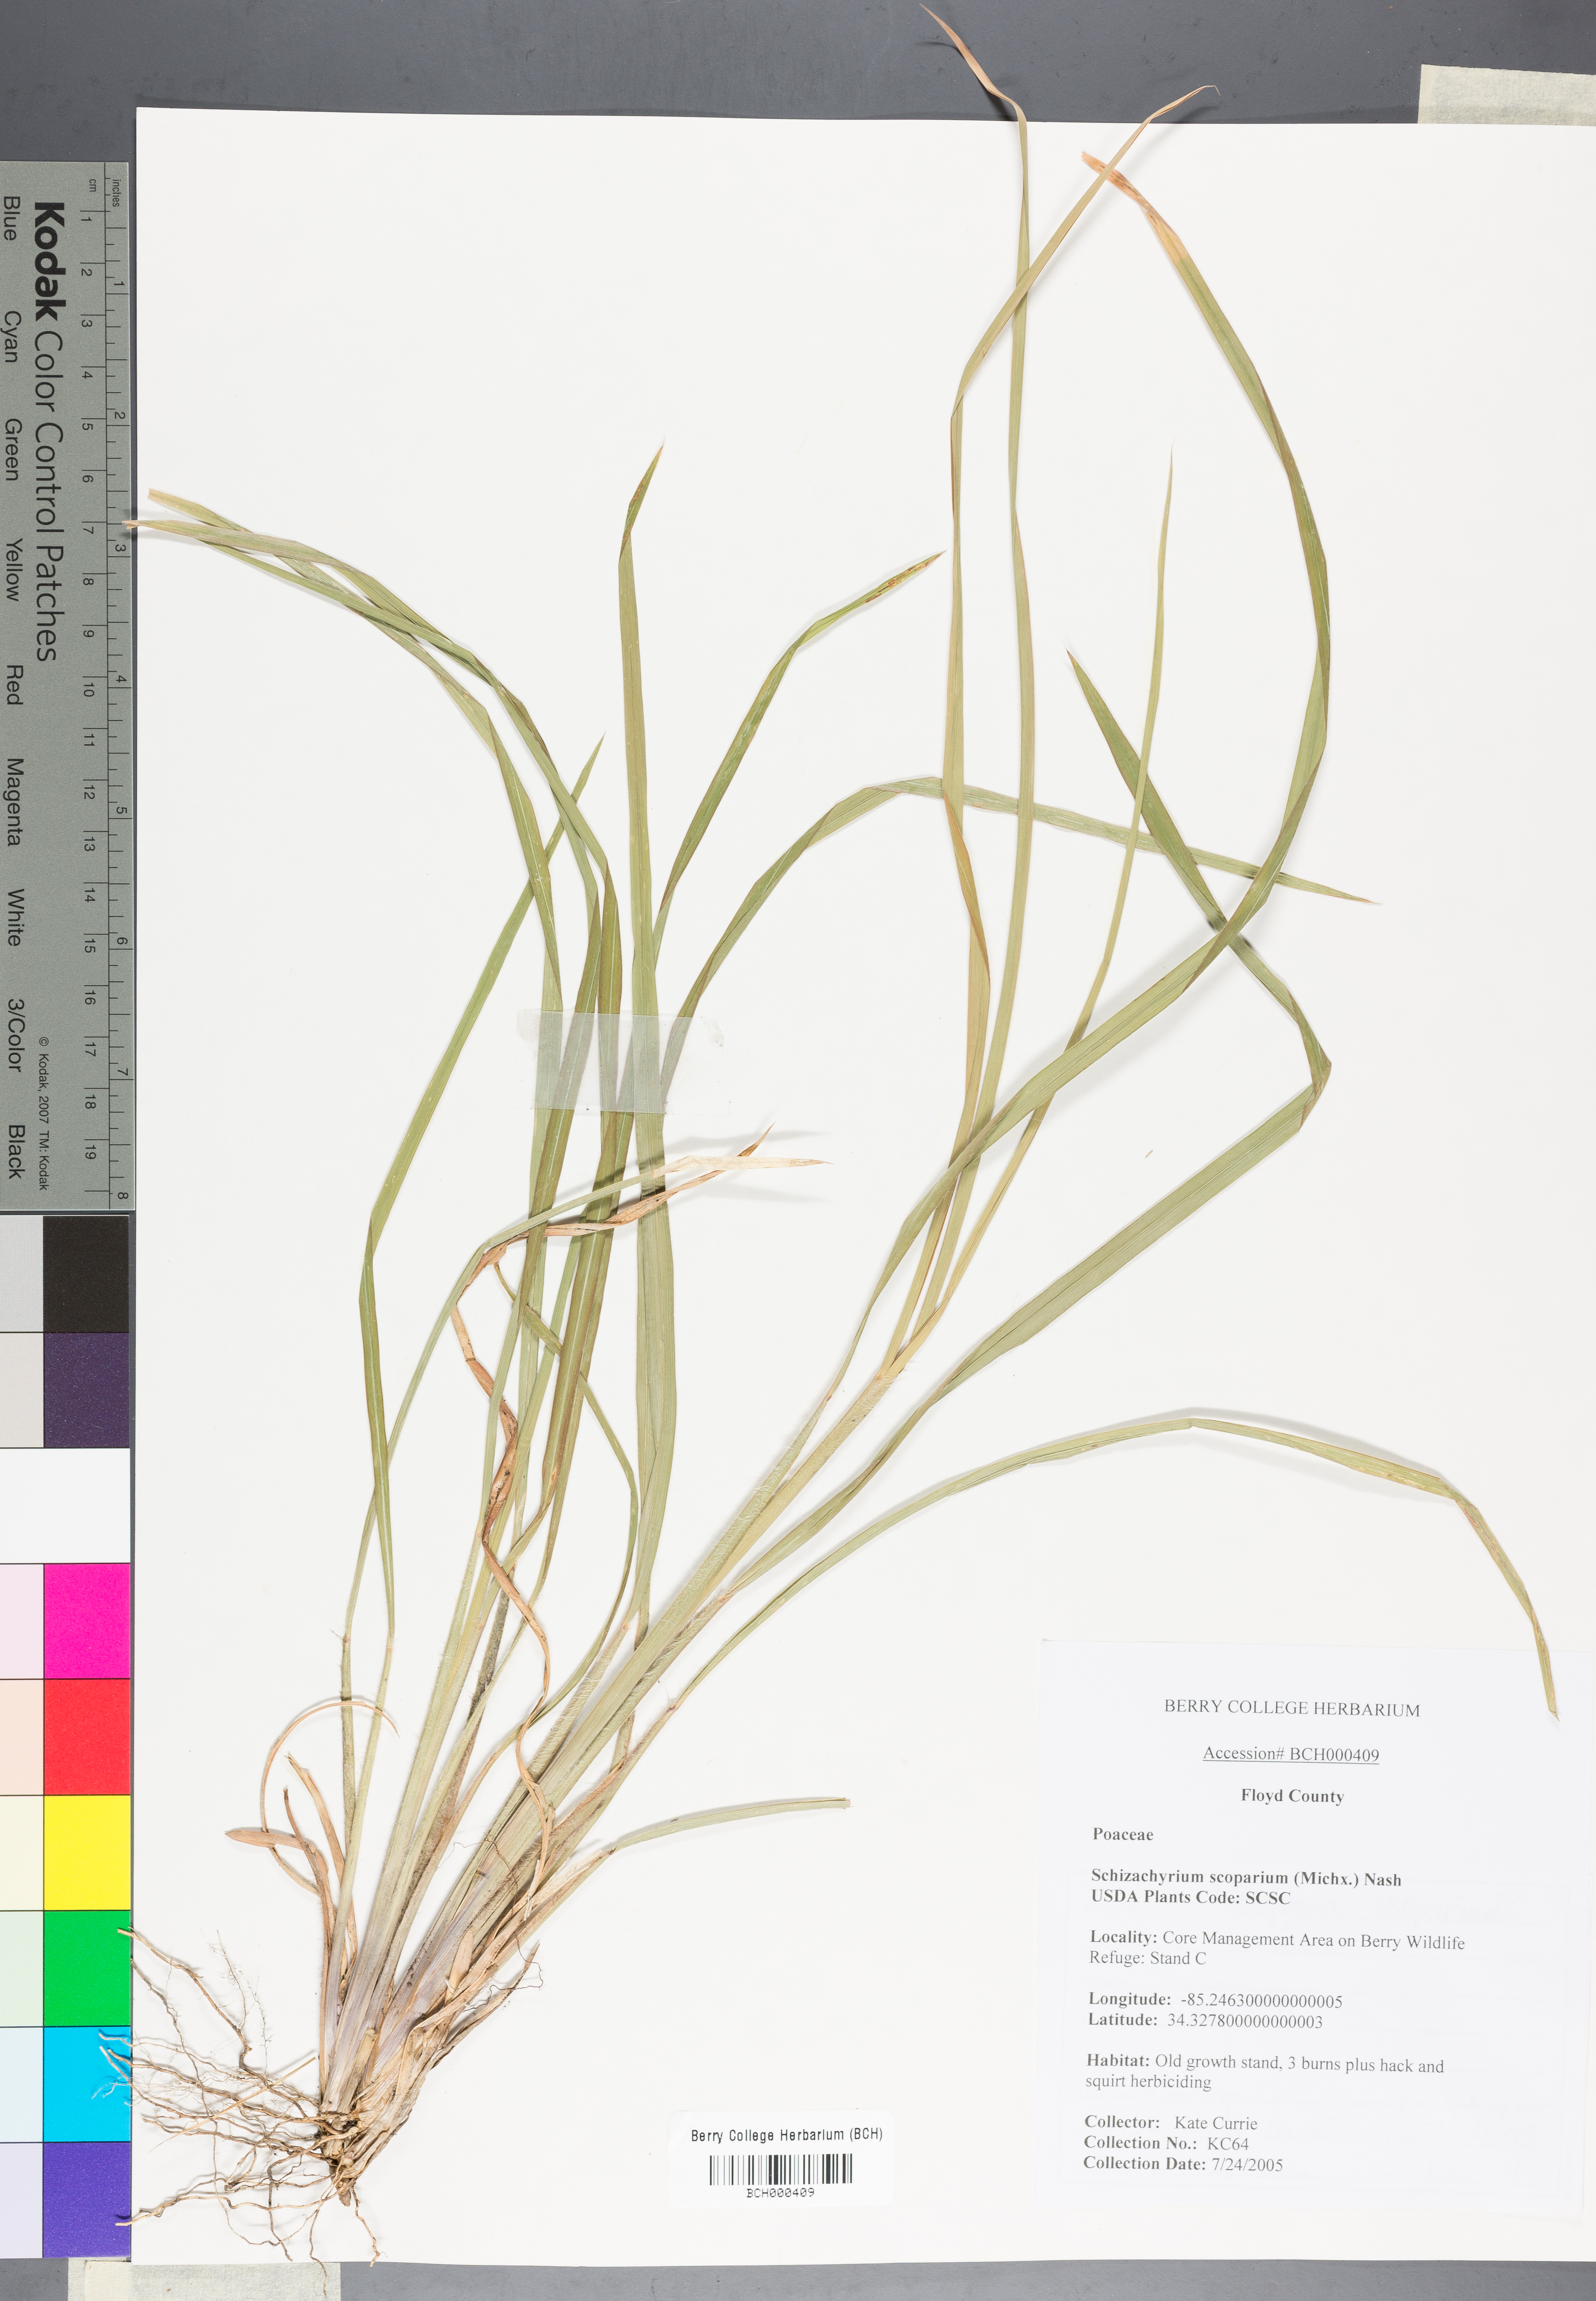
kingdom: Plantae
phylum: Tracheophyta
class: Liliopsida
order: Poales
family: Poaceae
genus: Schizachyrium
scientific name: Schizachyrium scoparium
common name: Little bluestem
